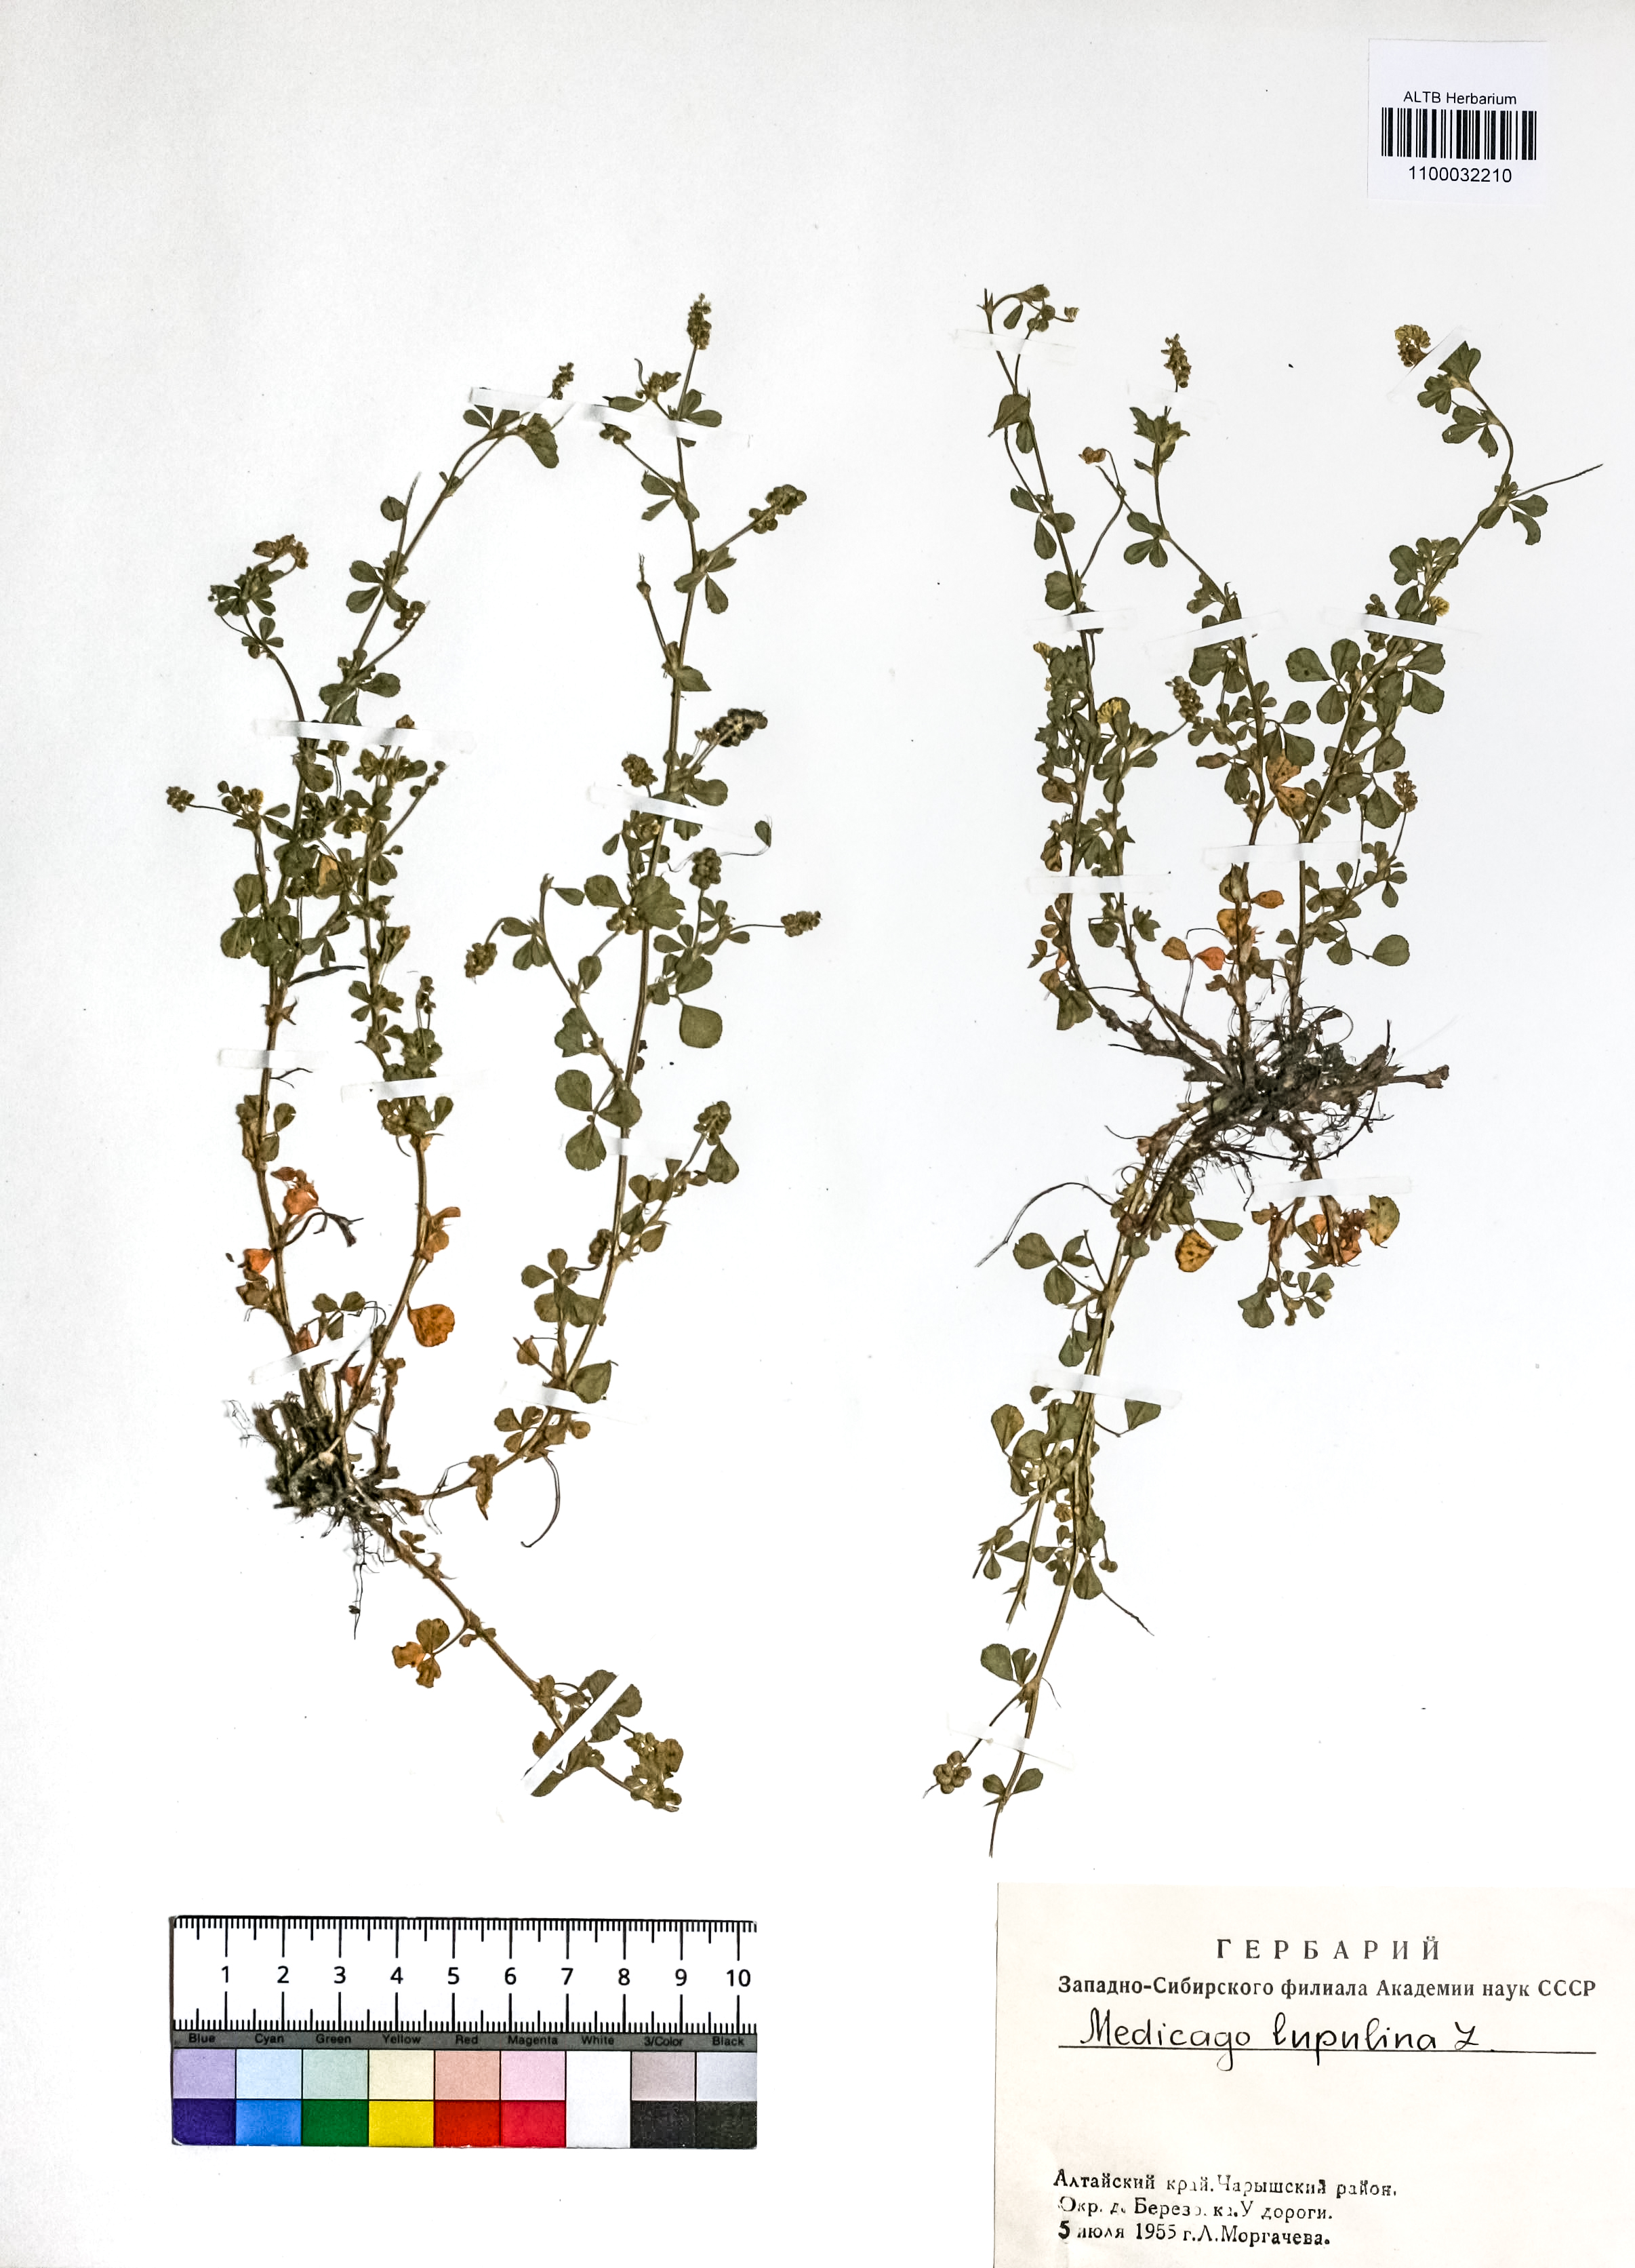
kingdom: Plantae
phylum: Tracheophyta
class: Magnoliopsida
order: Fabales
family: Fabaceae
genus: Medicago
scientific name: Medicago lupulina
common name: Black medick
